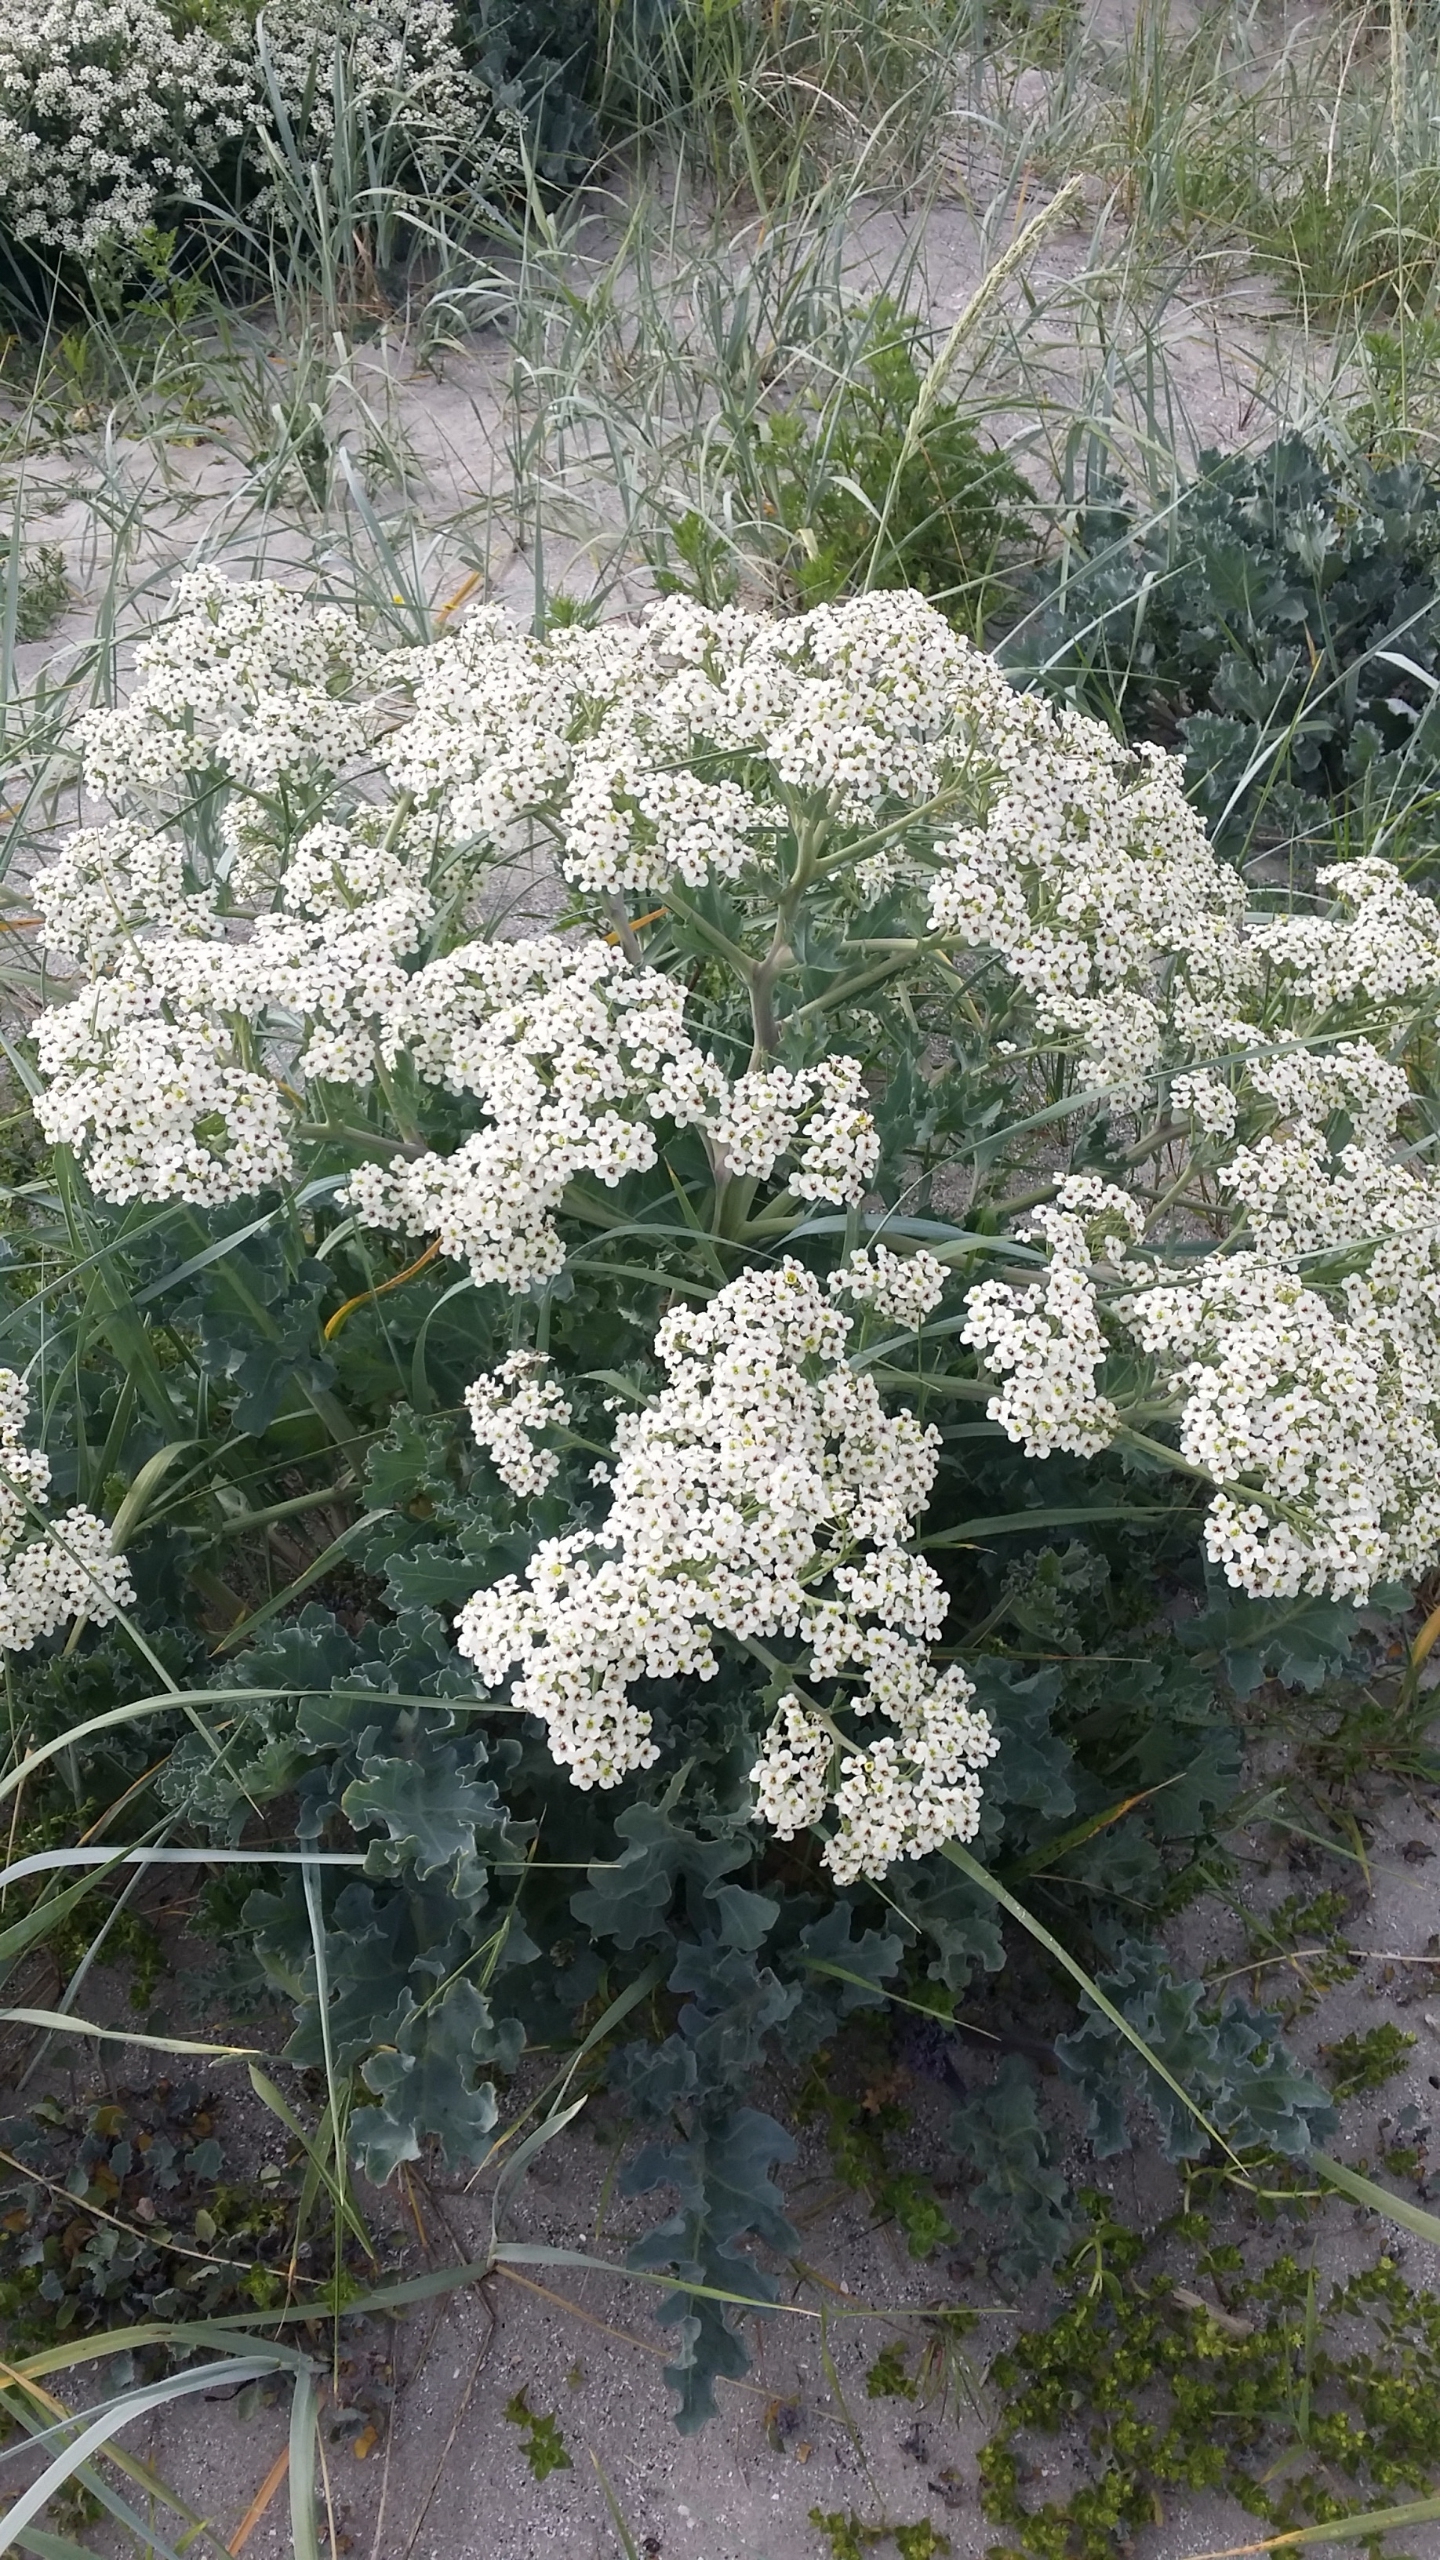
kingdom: Plantae
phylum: Tracheophyta
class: Magnoliopsida
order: Brassicales
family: Brassicaceae
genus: Crambe
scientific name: Crambe maritima
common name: Strandkål
